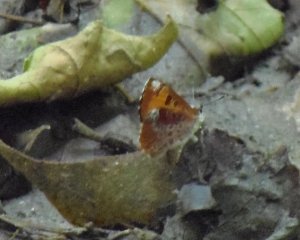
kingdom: Animalia
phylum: Arthropoda
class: Insecta
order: Lepidoptera
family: Lycaenidae
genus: Feniseca
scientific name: Feniseca tarquinius
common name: Harvester
